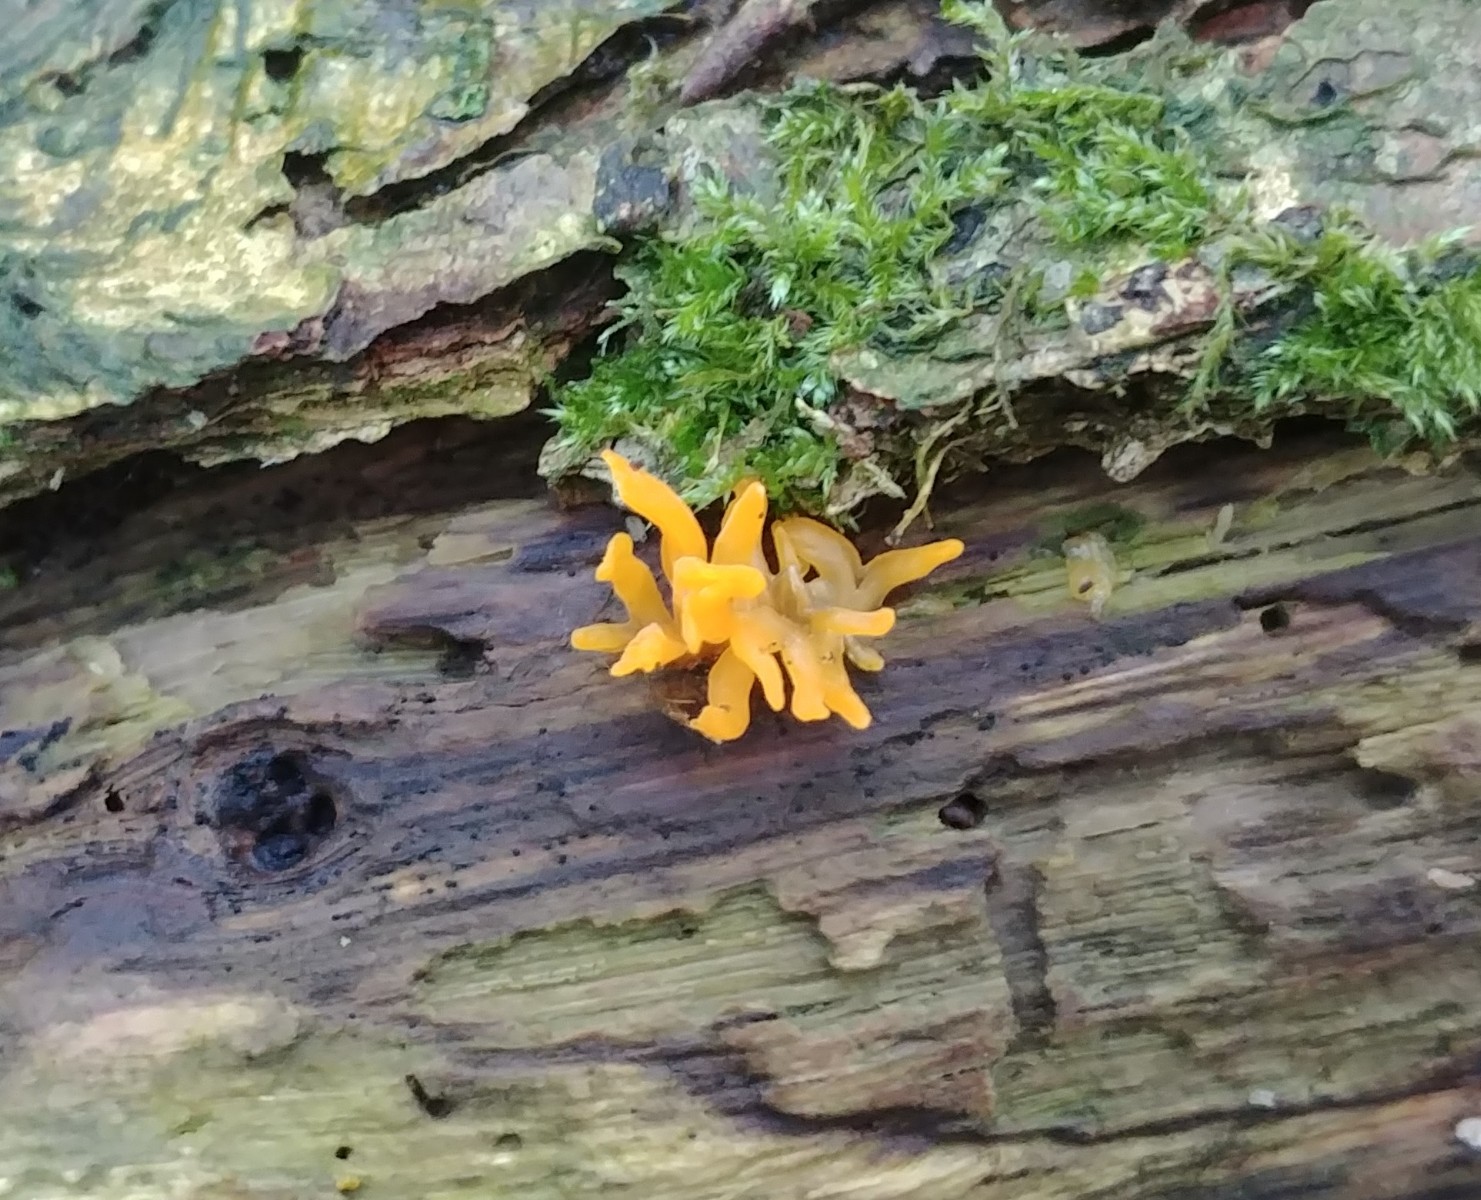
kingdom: Fungi
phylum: Basidiomycota
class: Dacrymycetes
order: Dacrymycetales
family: Dacrymycetaceae
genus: Calocera
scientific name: Calocera cornea
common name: liden guldgaffel
